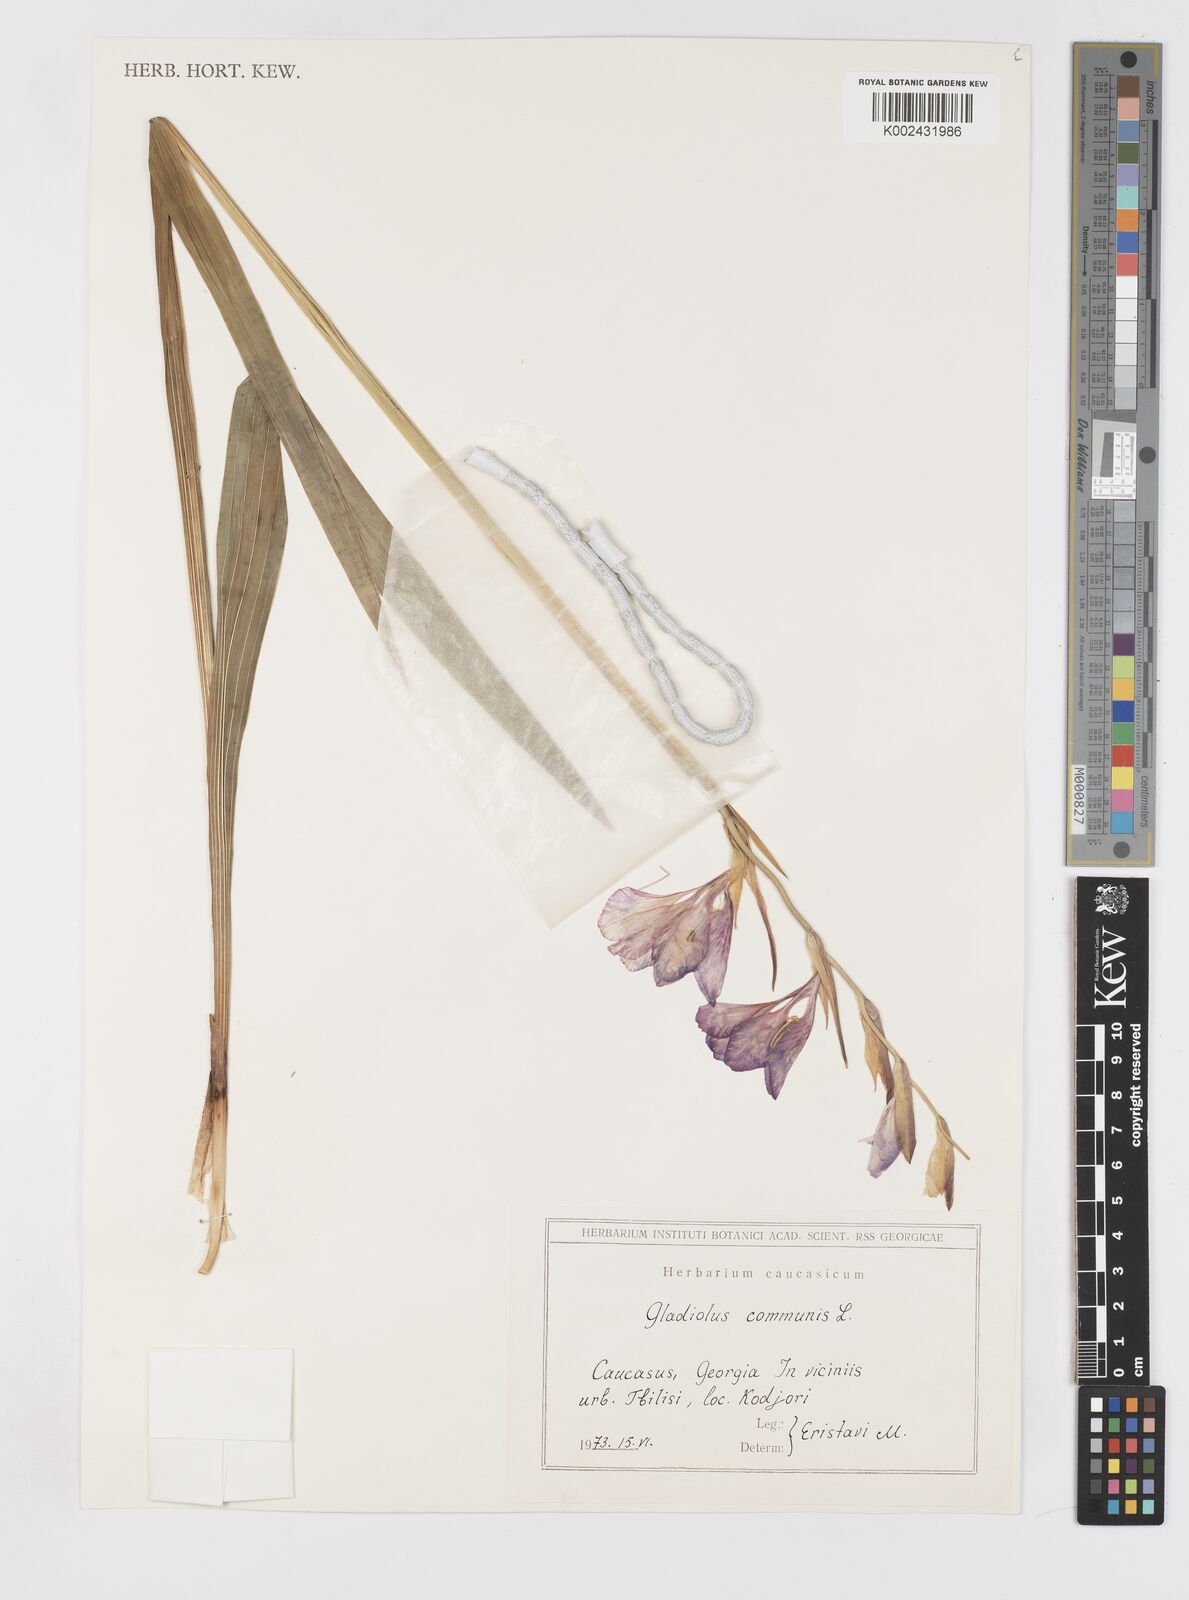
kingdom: Plantae
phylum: Tracheophyta
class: Liliopsida
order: Asparagales
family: Iridaceae
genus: Gladiolus
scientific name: Gladiolus communis
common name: Eastern gladiolus
